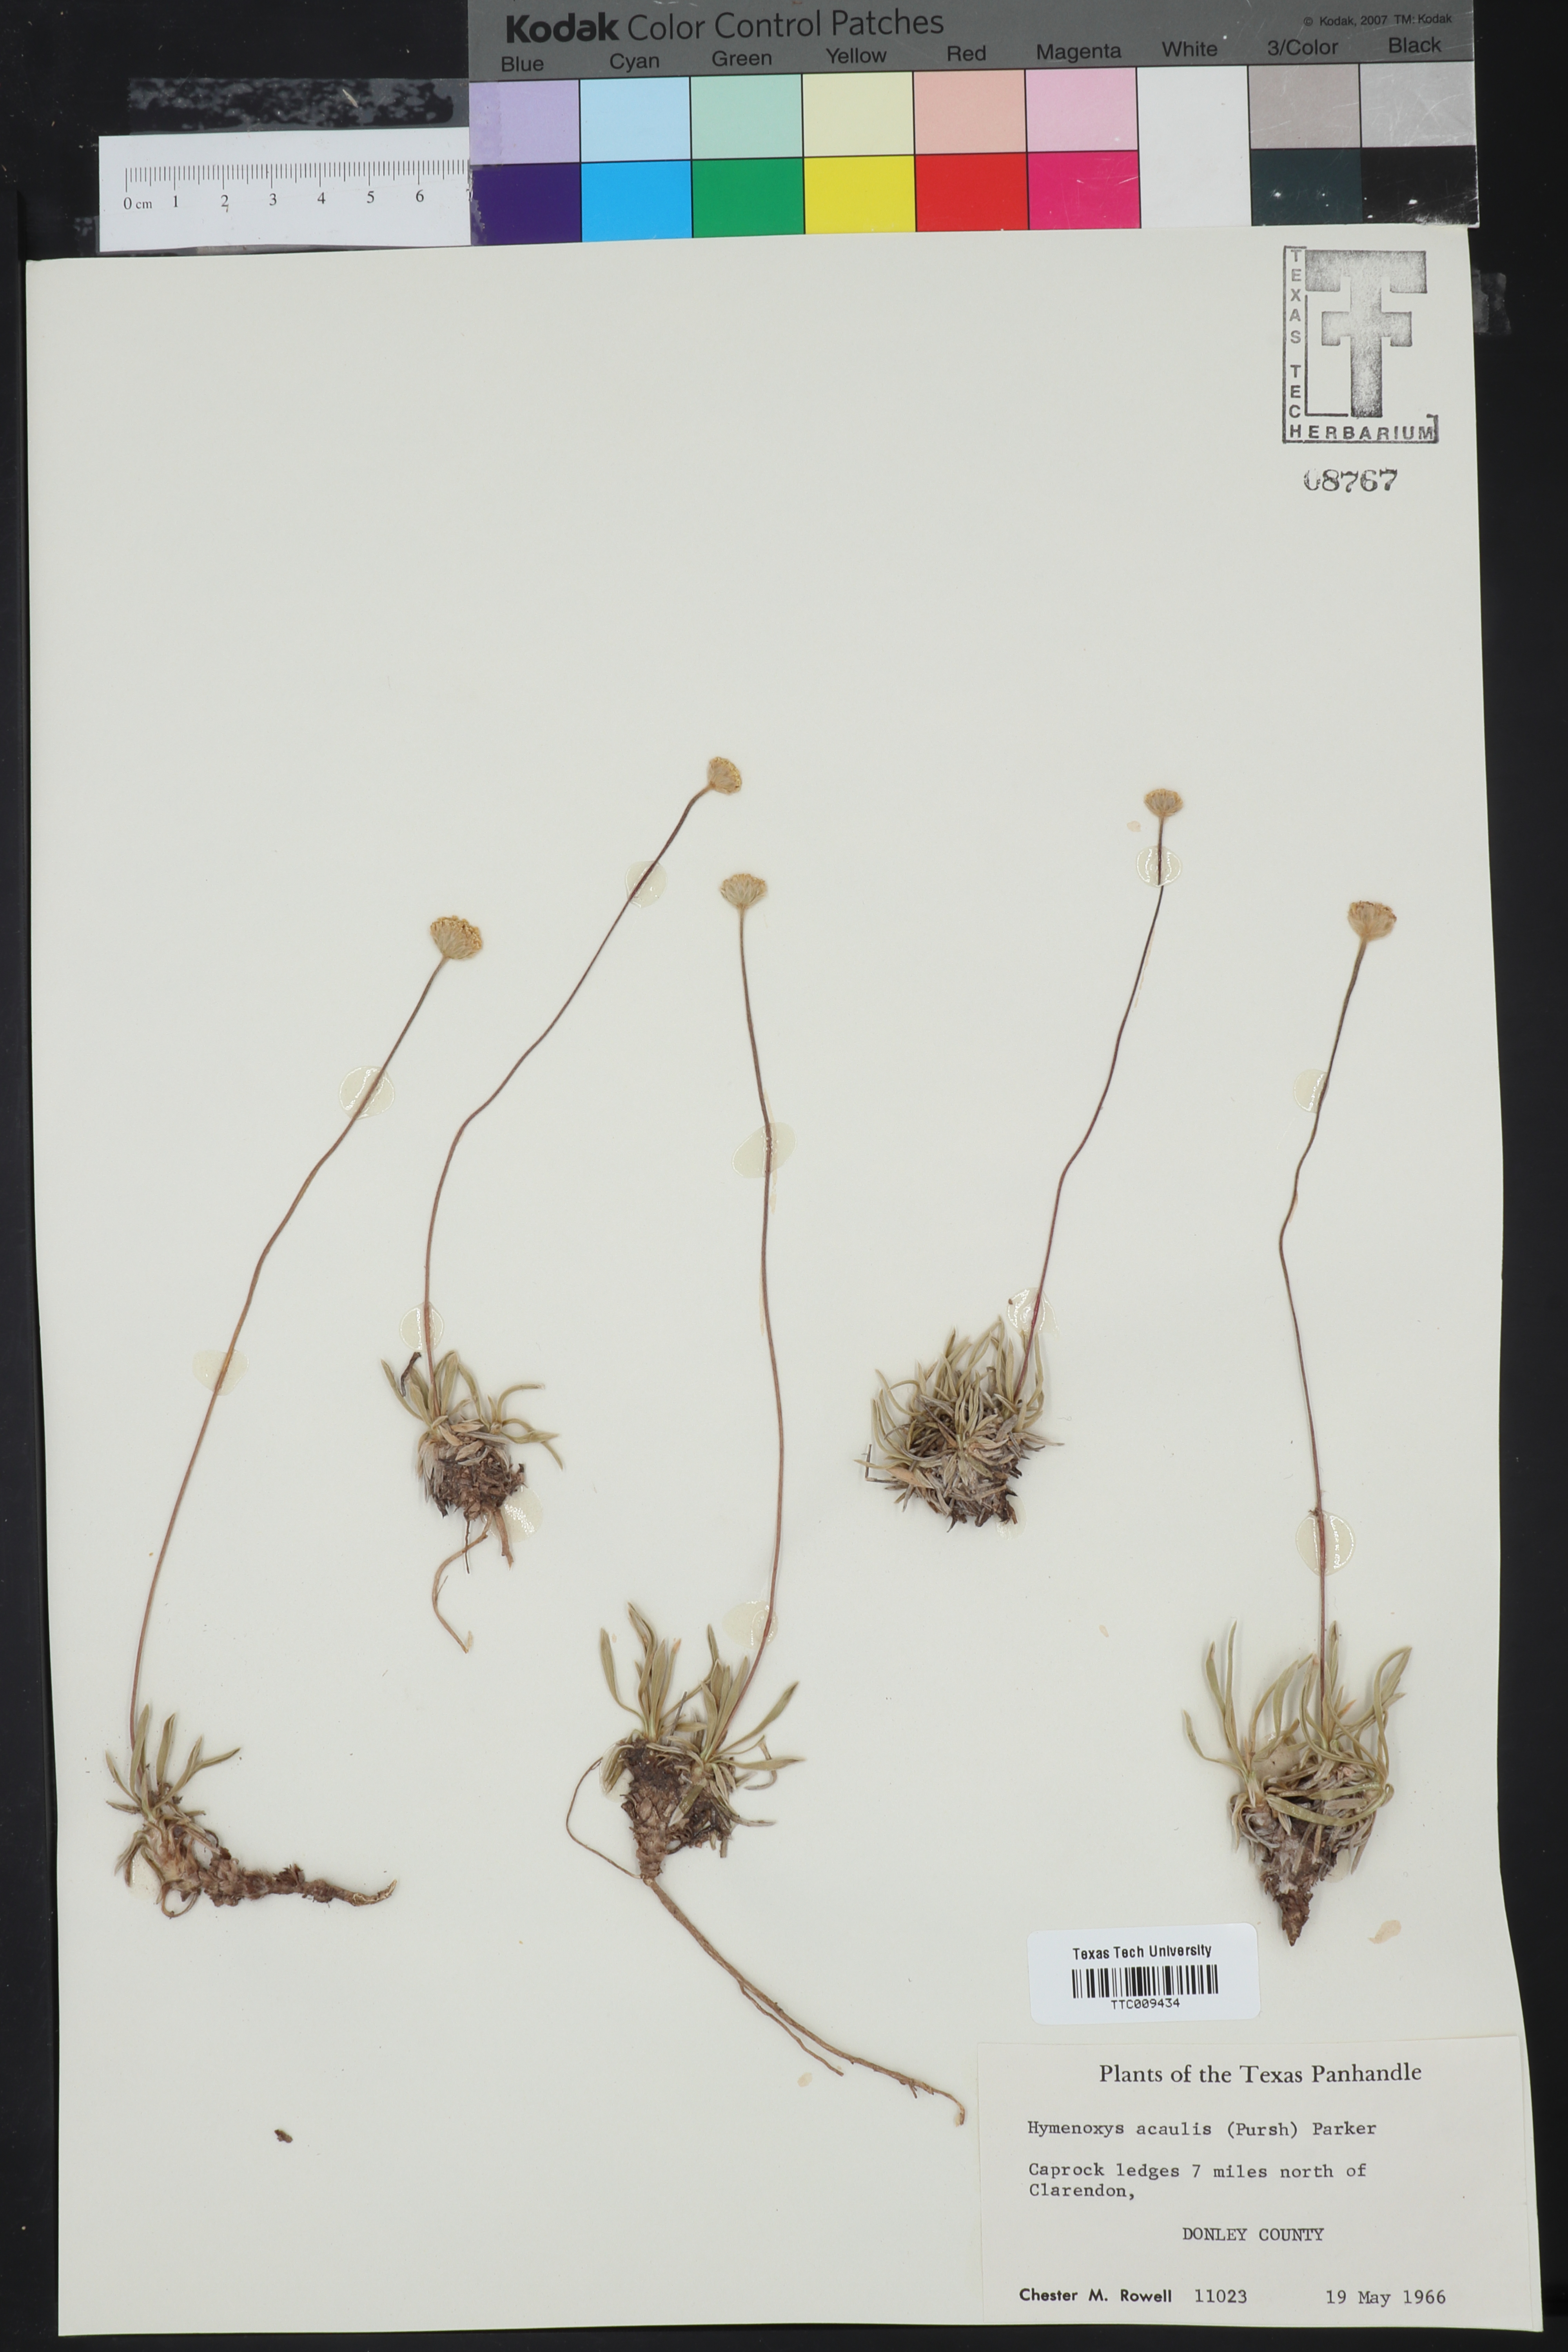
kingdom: Plantae
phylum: Tracheophyta
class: Magnoliopsida
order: Asterales
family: Asteraceae
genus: Tetraneuris
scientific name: Tetraneuris acaulis
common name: Butte marigold
